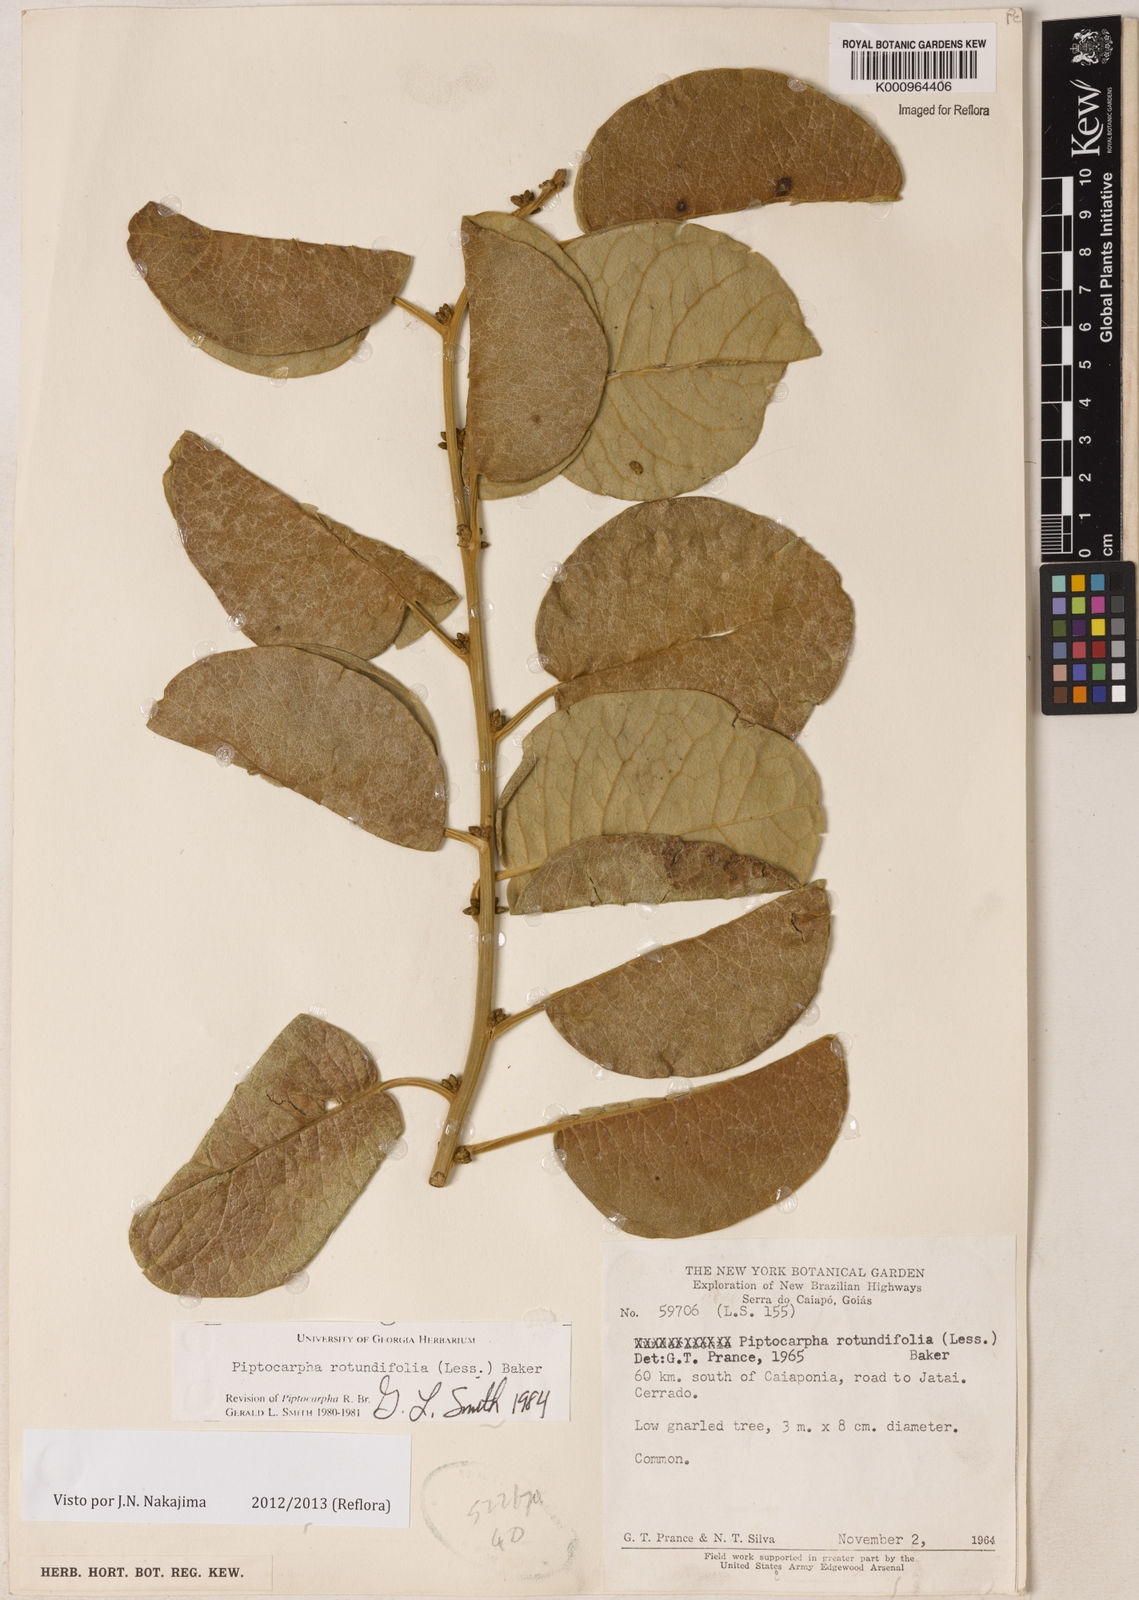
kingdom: Plantae
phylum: Tracheophyta
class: Magnoliopsida
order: Asterales
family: Asteraceae
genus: Piptocarpha
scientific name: Piptocarpha rotundifolia
